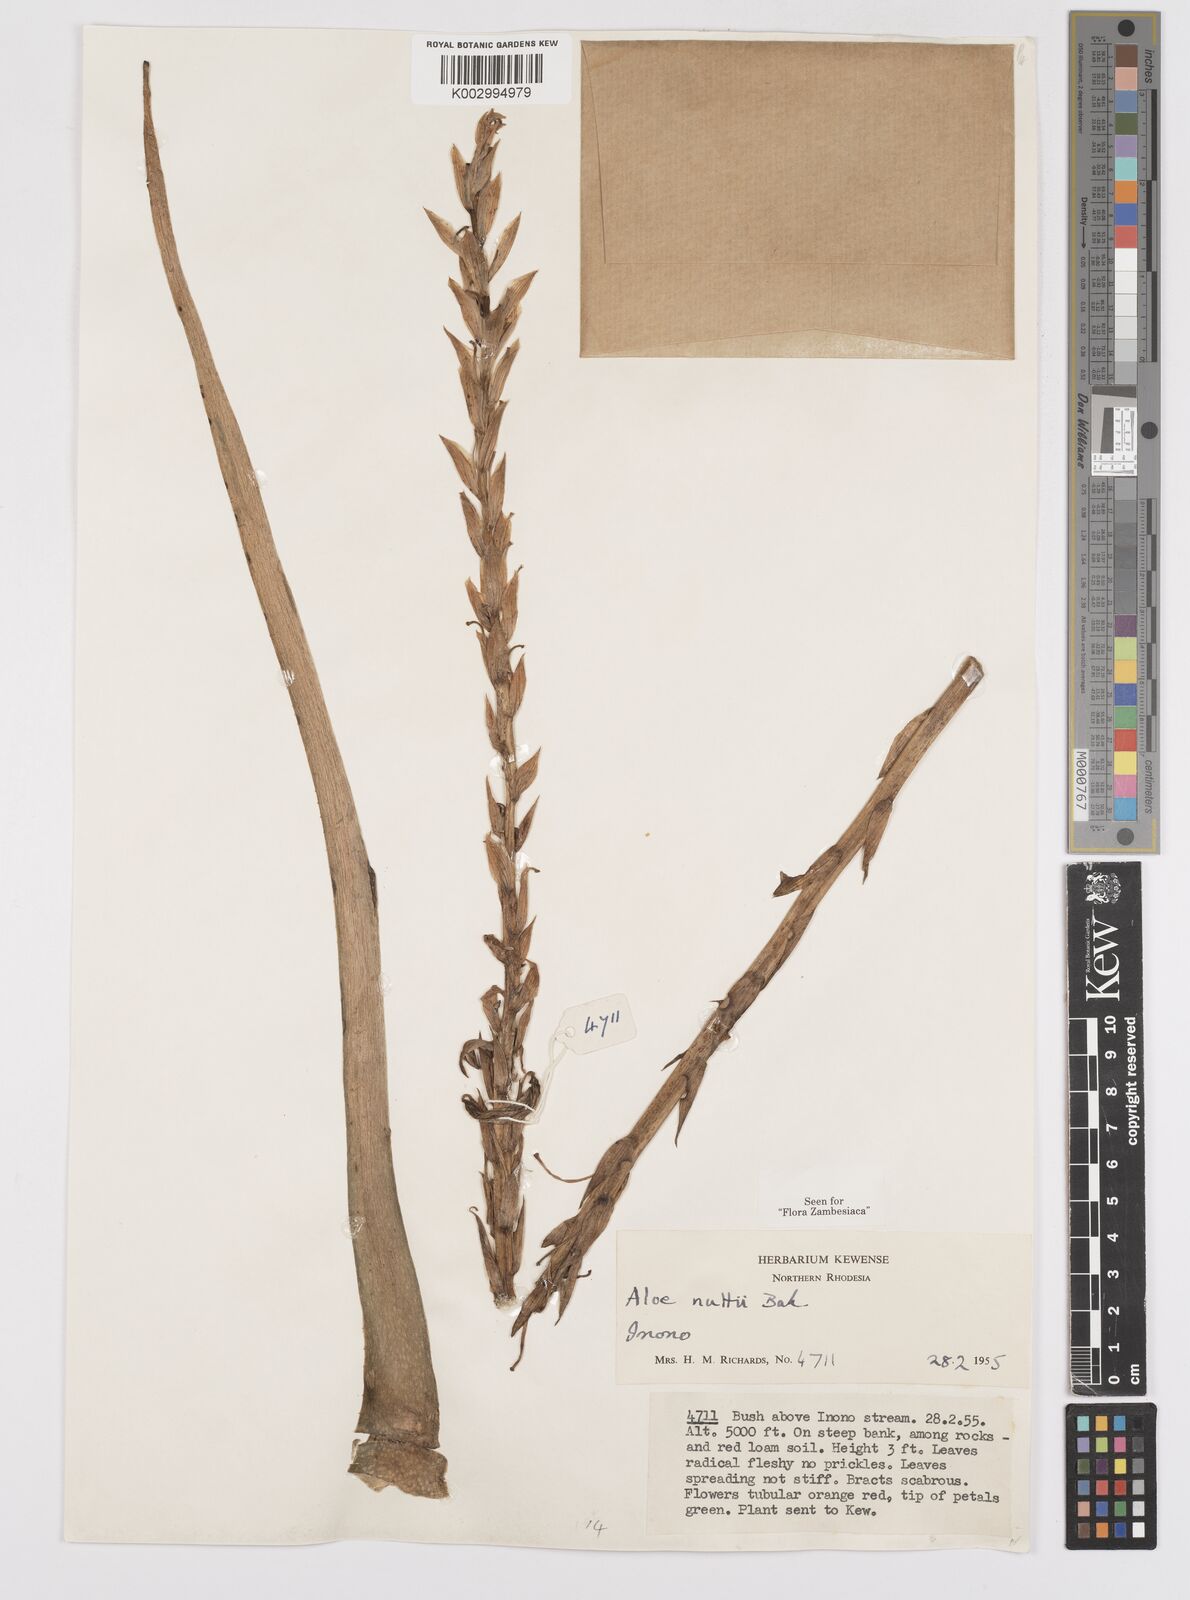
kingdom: Plantae
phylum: Tracheophyta
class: Liliopsida
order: Asparagales
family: Asphodelaceae
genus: Aloe
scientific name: Aloe nuttii
